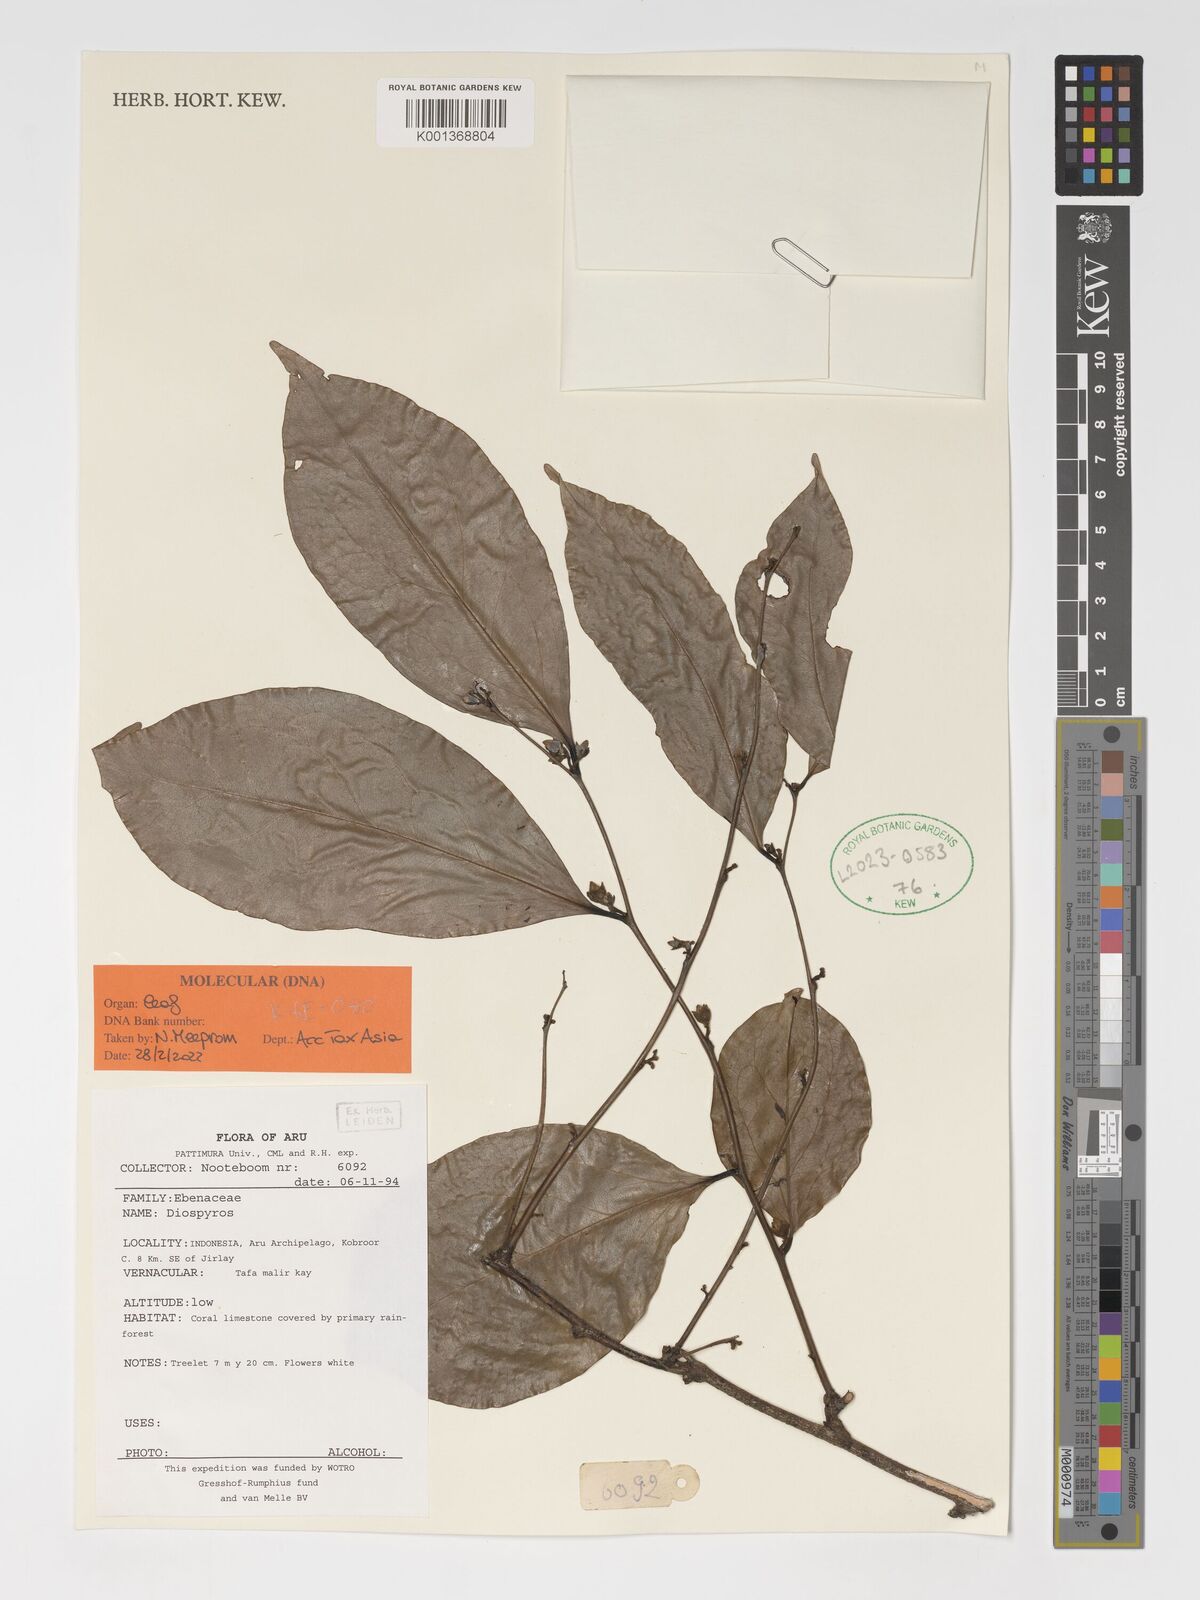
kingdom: Plantae
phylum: Tracheophyta
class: Magnoliopsida
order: Ericales
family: Ebenaceae
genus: Diospyros
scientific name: Diospyros
